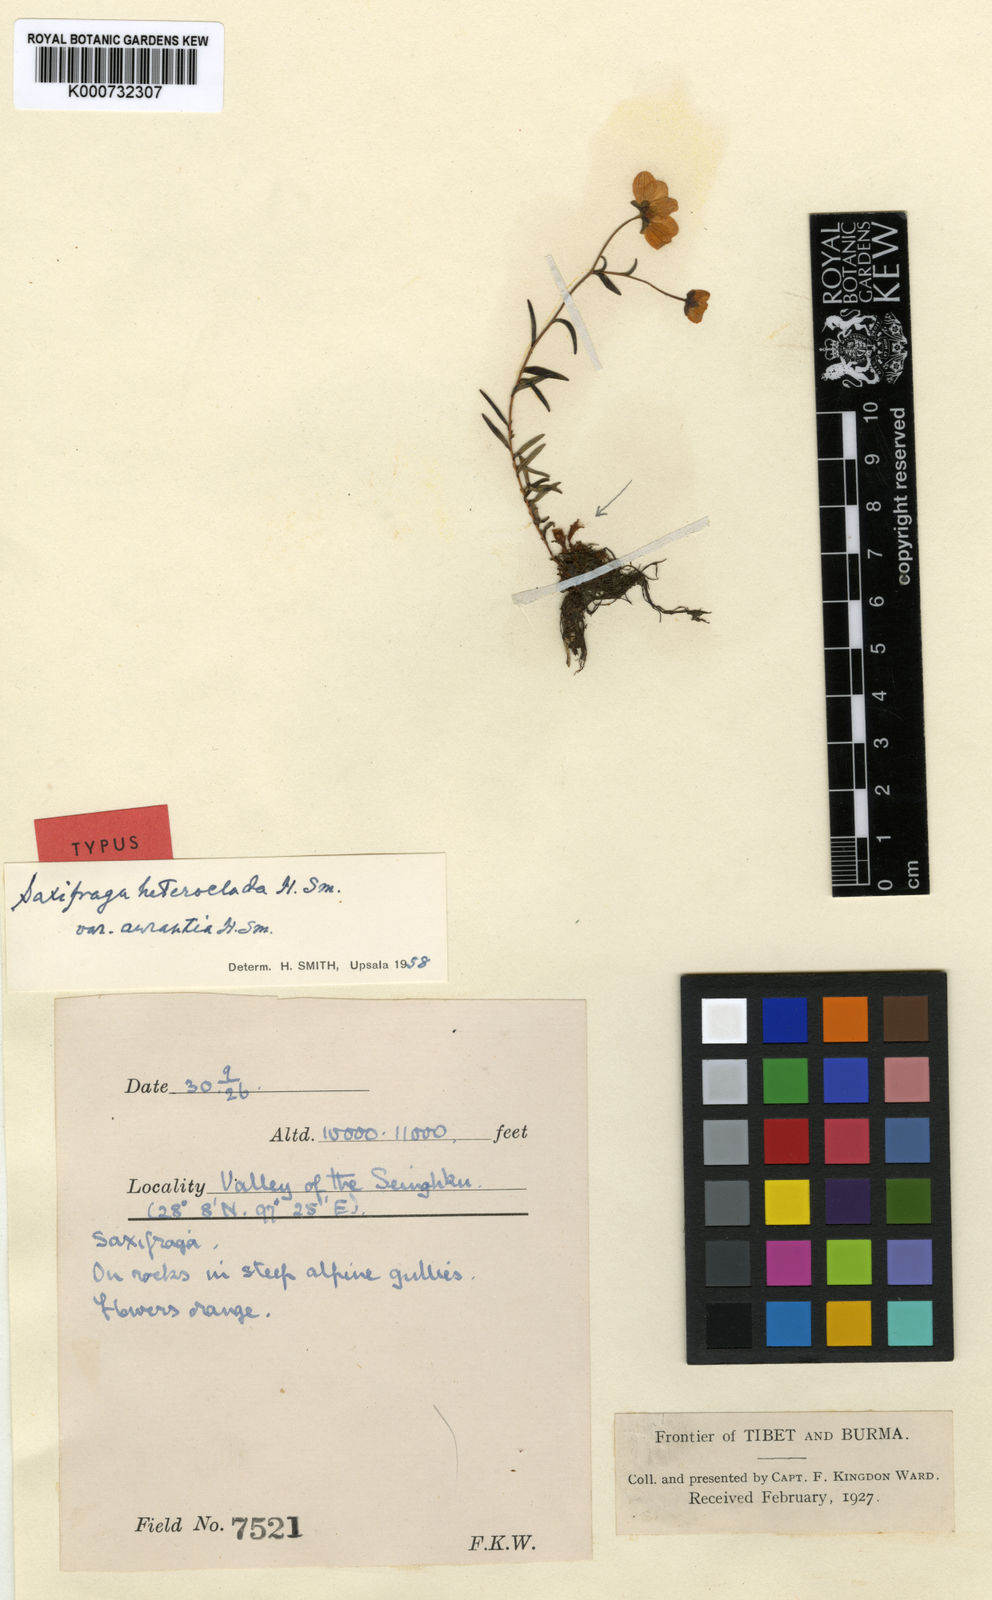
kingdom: Plantae
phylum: Tracheophyta
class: Magnoliopsida
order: Saxifragales
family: Saxifragaceae
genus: Saxifraga
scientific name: Saxifraga heteroclada
